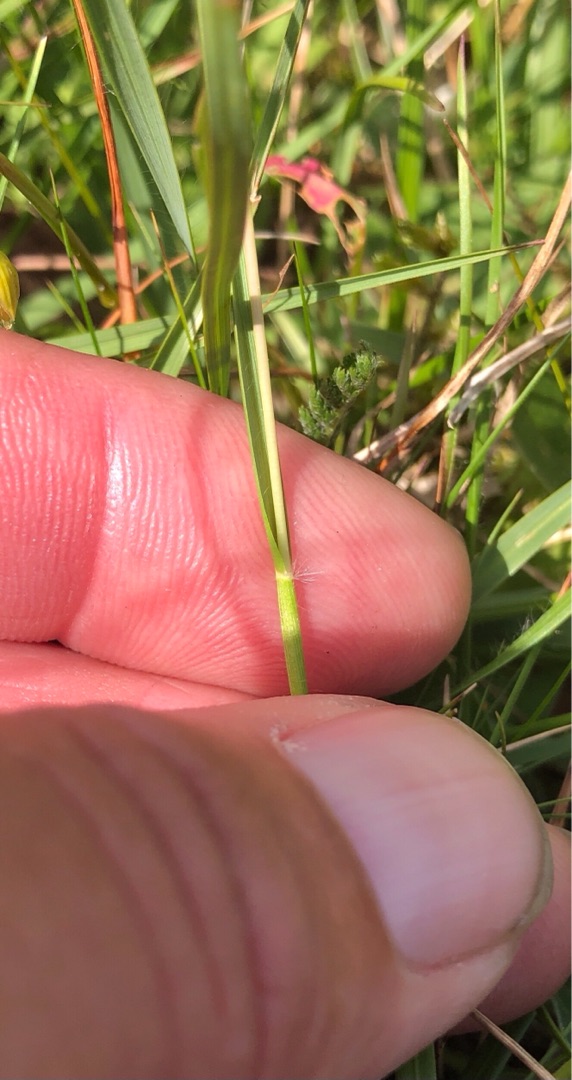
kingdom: Plantae
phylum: Tracheophyta
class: Liliopsida
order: Poales
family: Poaceae
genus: Danthonia
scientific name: Danthonia decumbens
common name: Tandbælg
